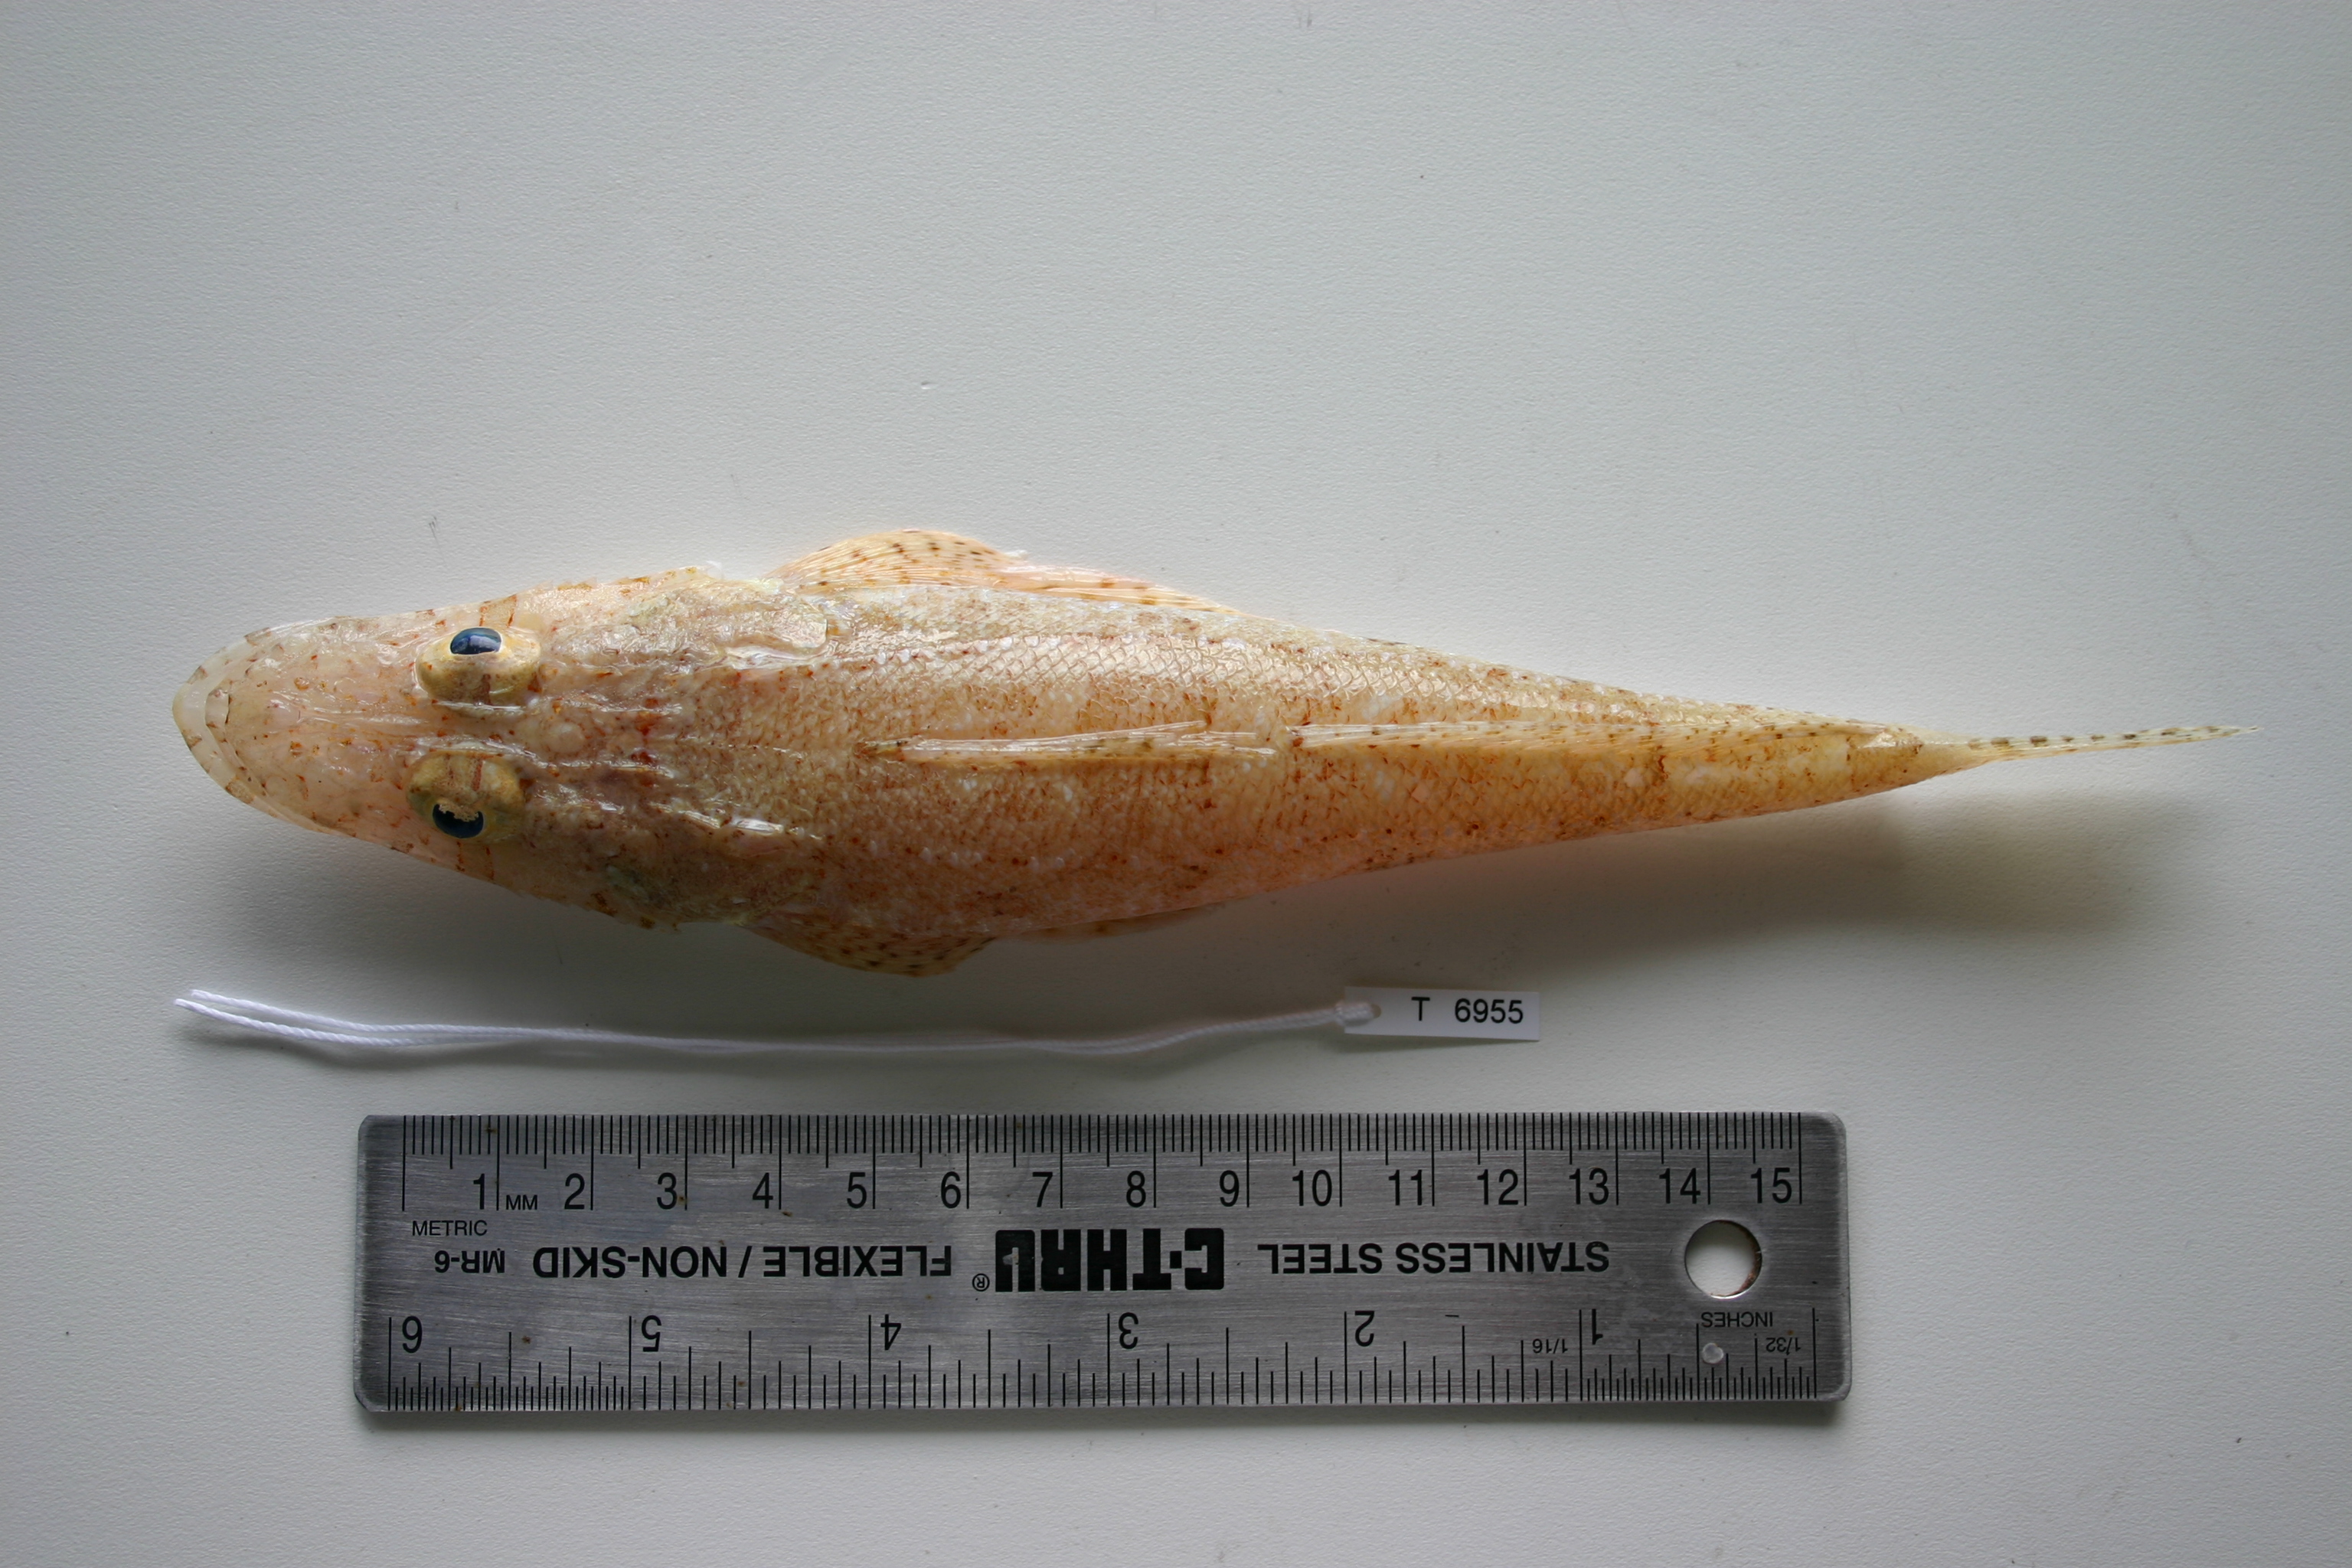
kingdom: Animalia
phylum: Chordata
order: Scorpaeniformes
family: Platycephalidae
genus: Thysanophrys
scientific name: Thysanophrys chiltonae
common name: Longsnout flathead
